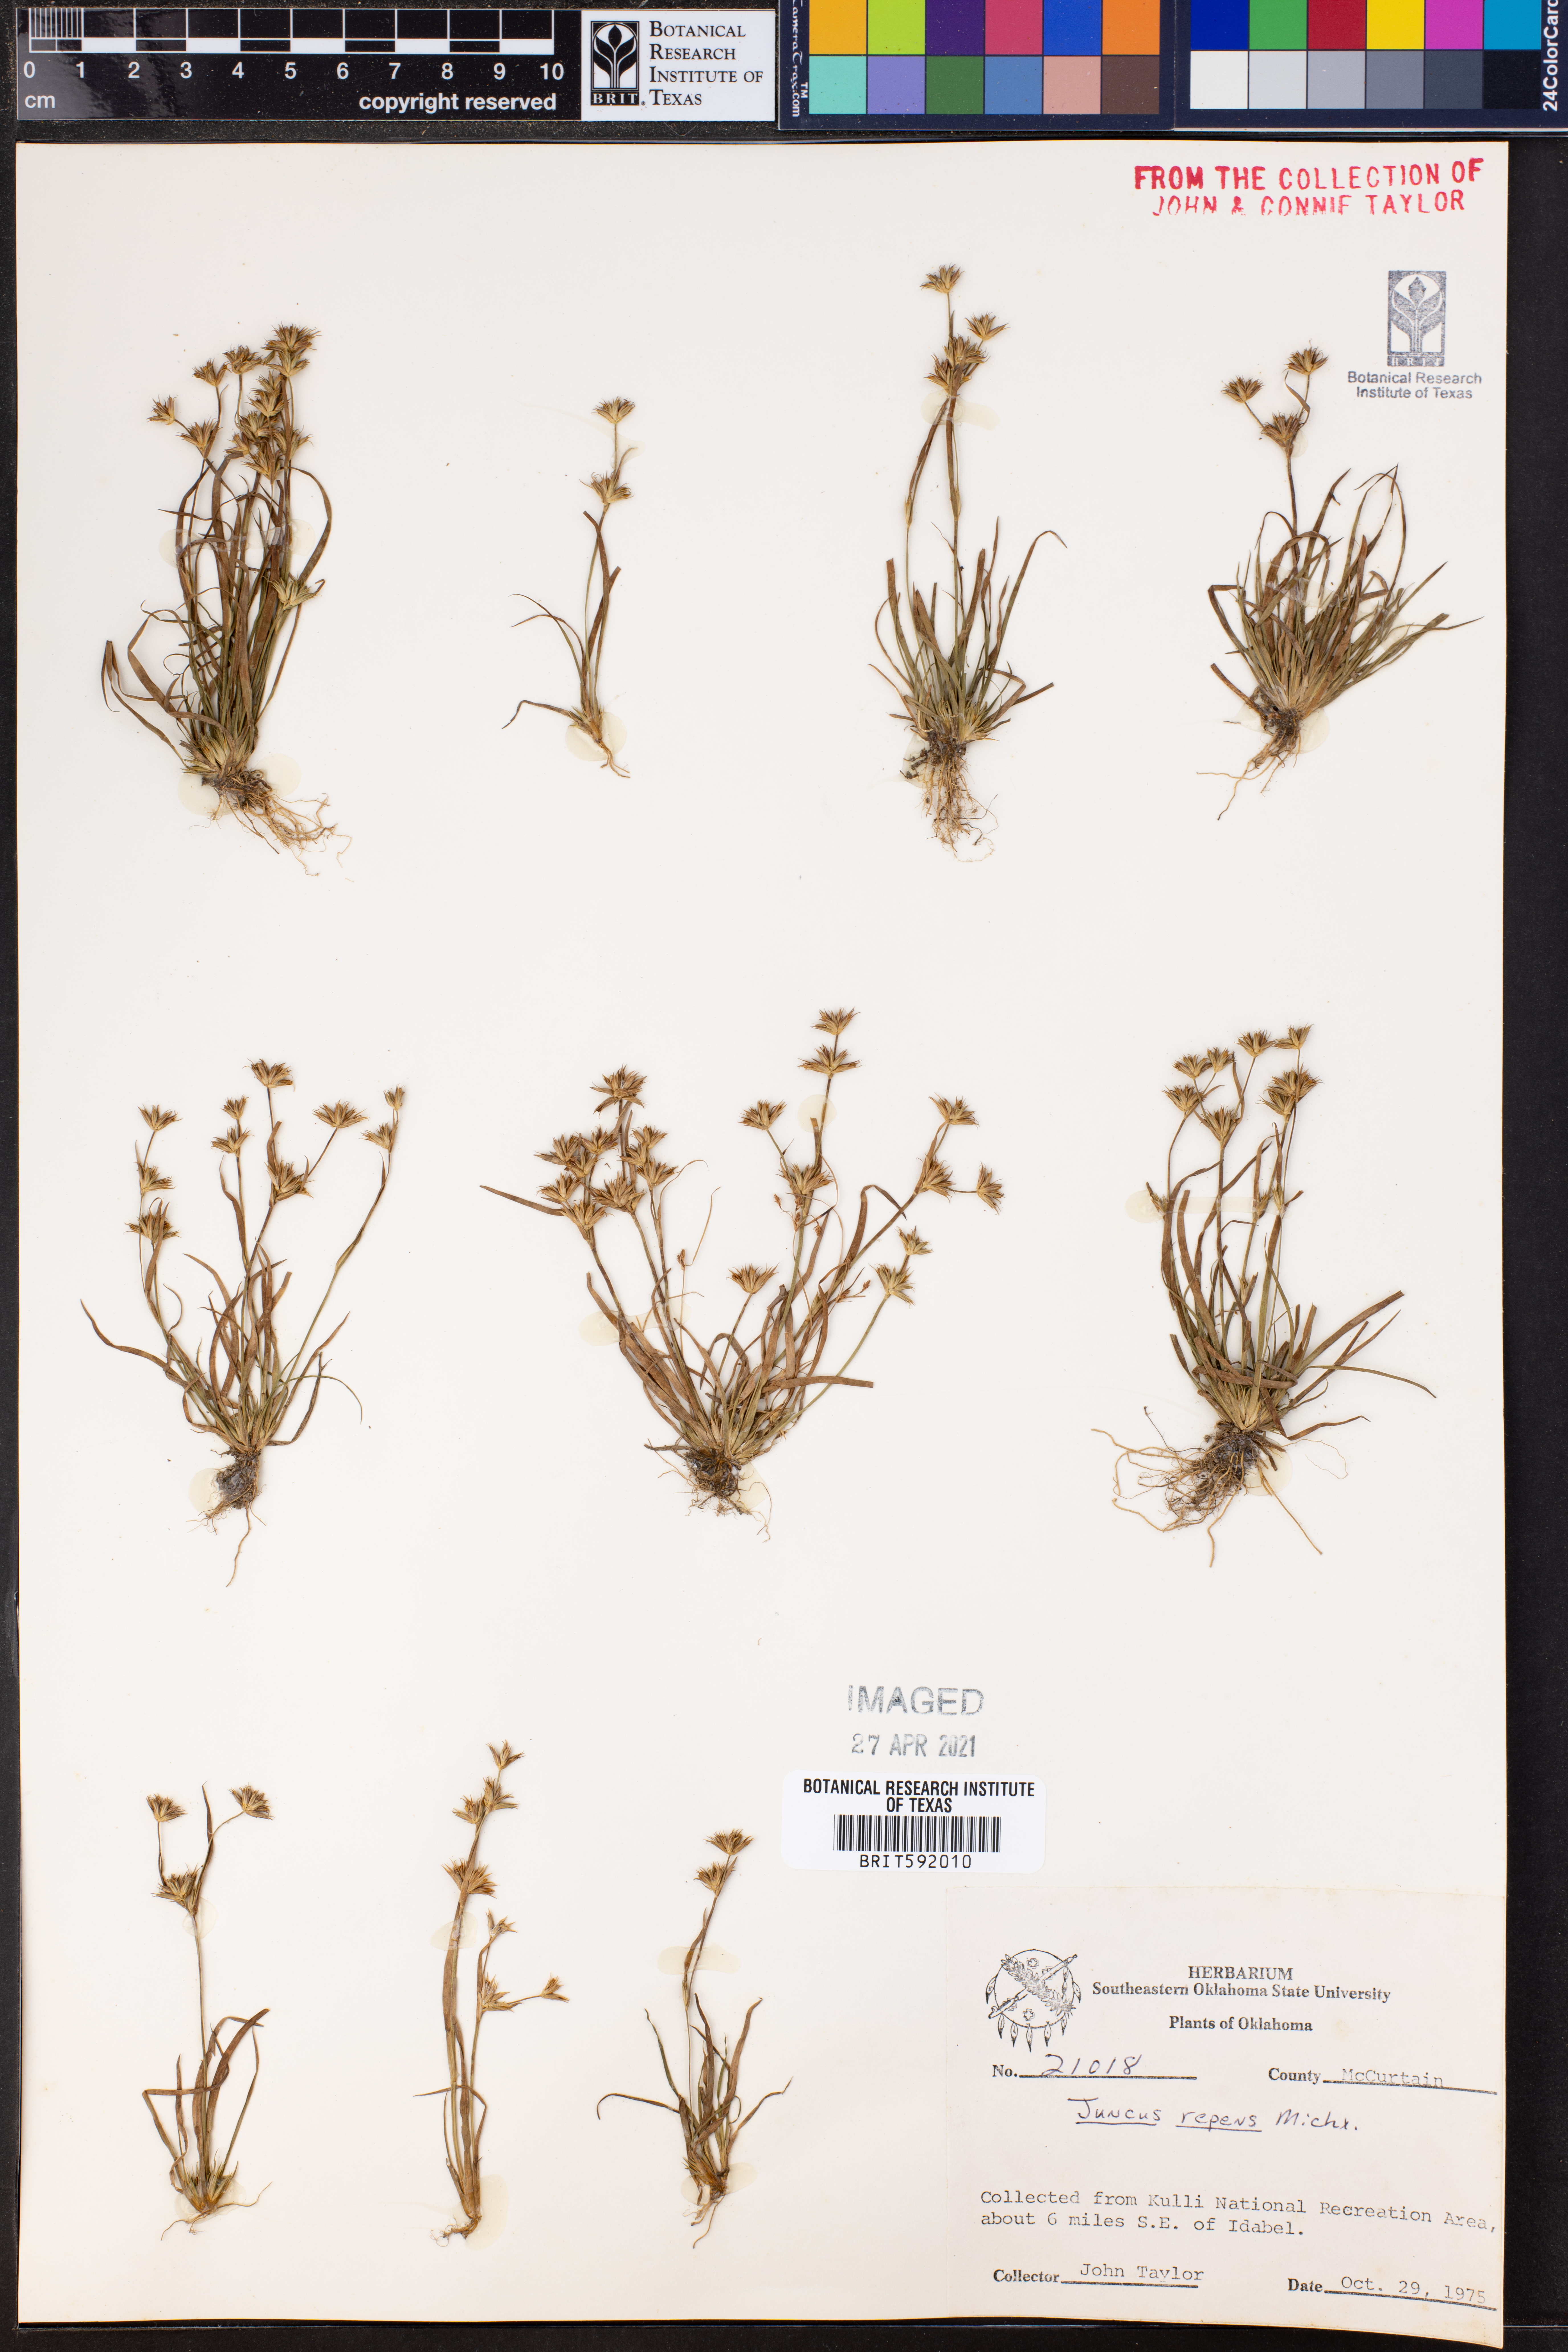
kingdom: Plantae
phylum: Tracheophyta
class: Liliopsida
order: Poales
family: Juncaceae
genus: Juncus
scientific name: Juncus repens
